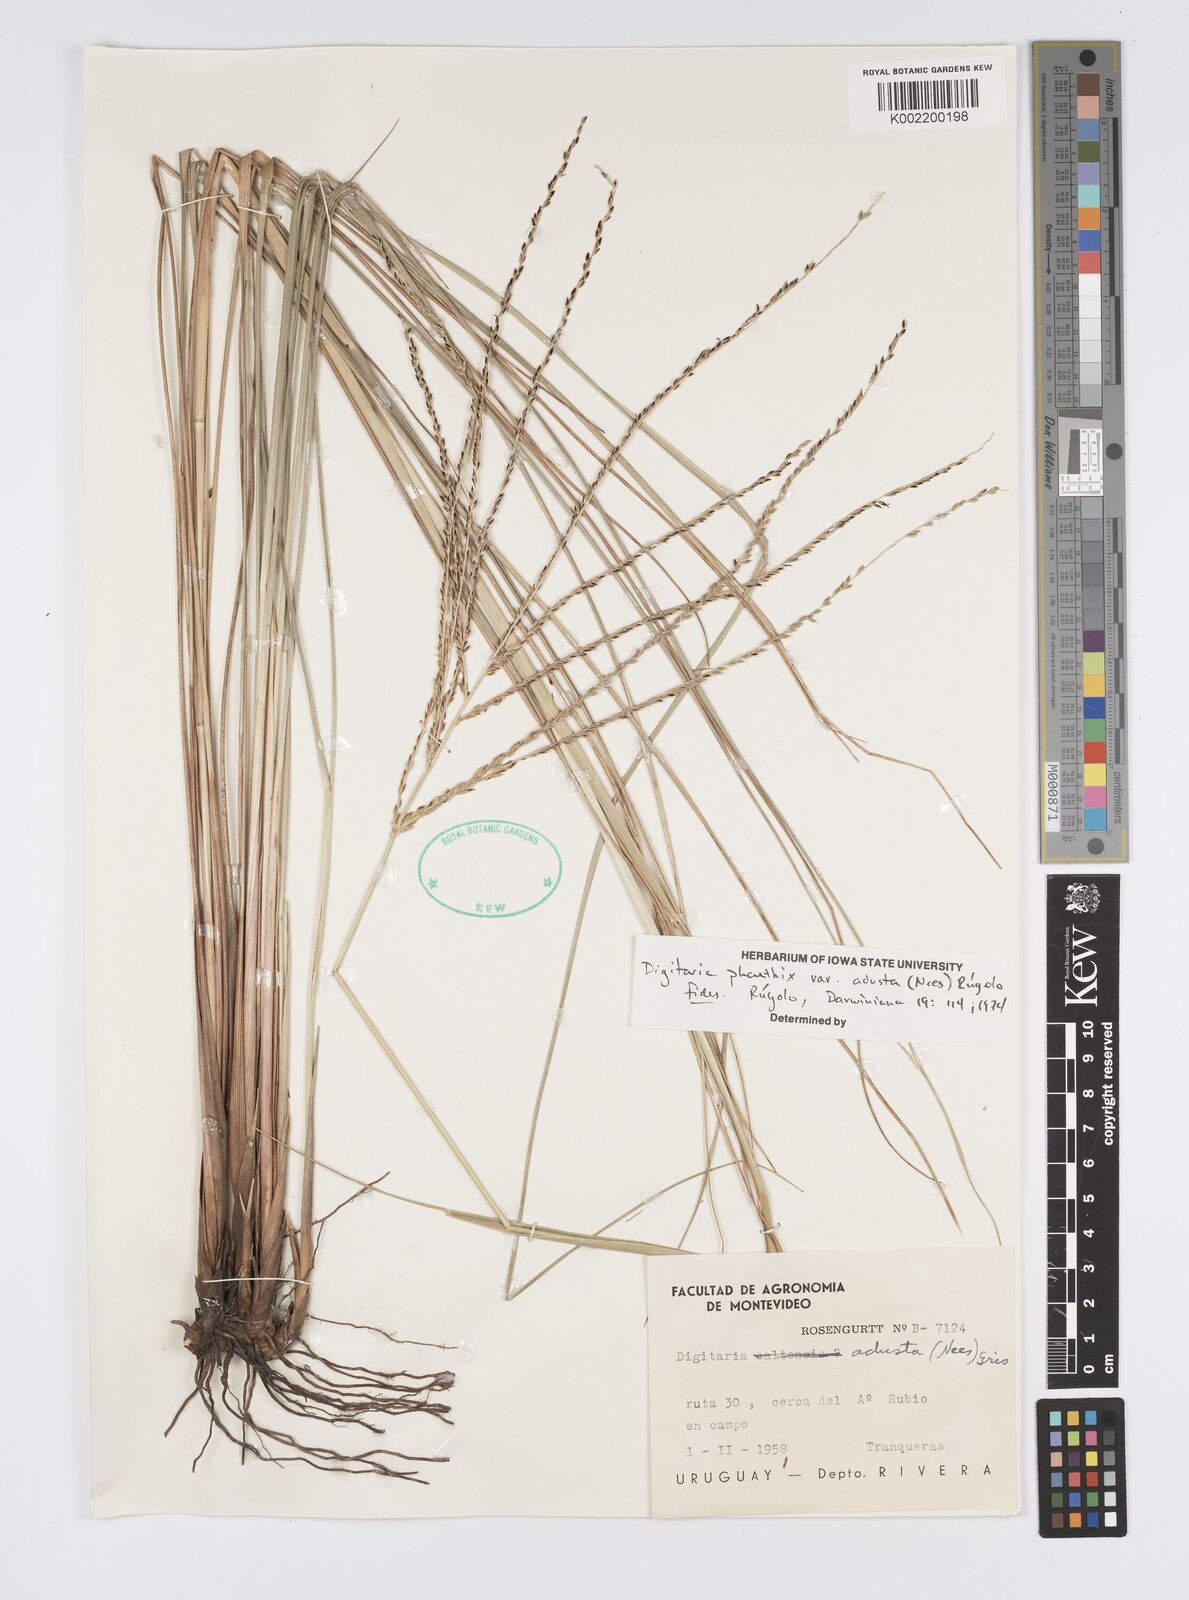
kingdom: Plantae
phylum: Tracheophyta
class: Liliopsida
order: Poales
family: Poaceae
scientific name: Poaceae
